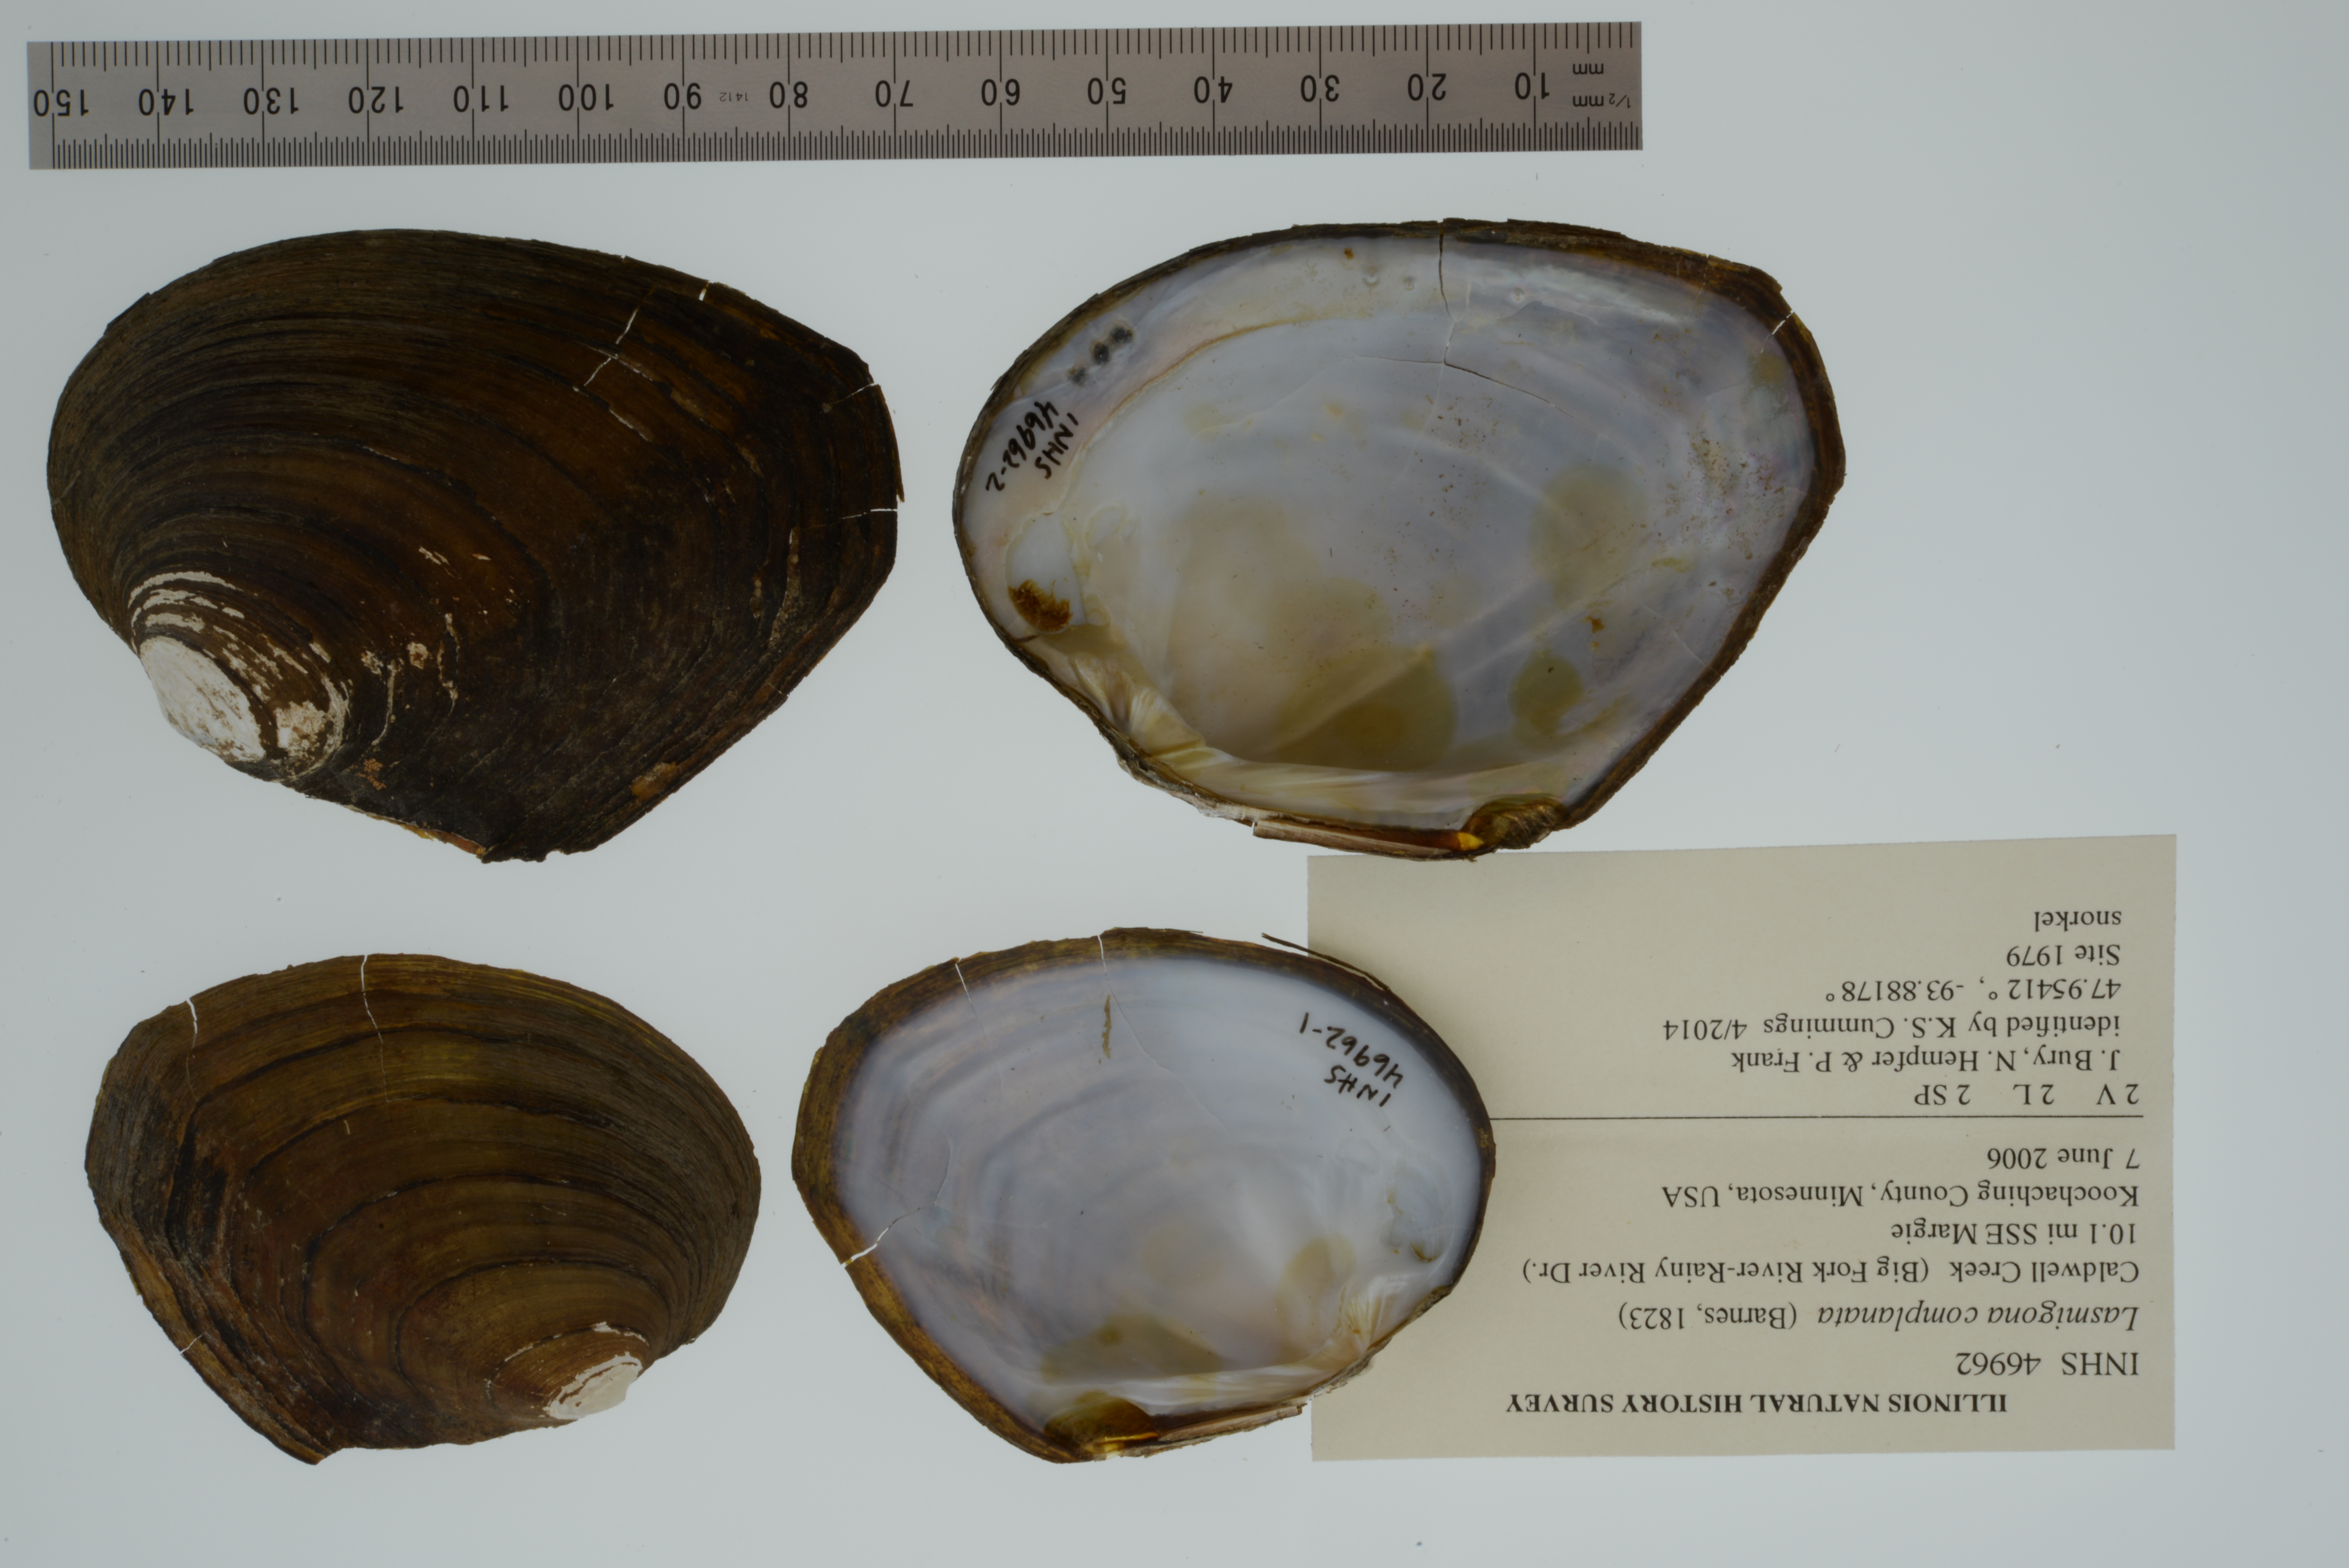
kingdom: Animalia
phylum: Mollusca
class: Bivalvia
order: Unionida
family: Unionidae
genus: Lasmigona
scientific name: Lasmigona complanata
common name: White heelsplitter
